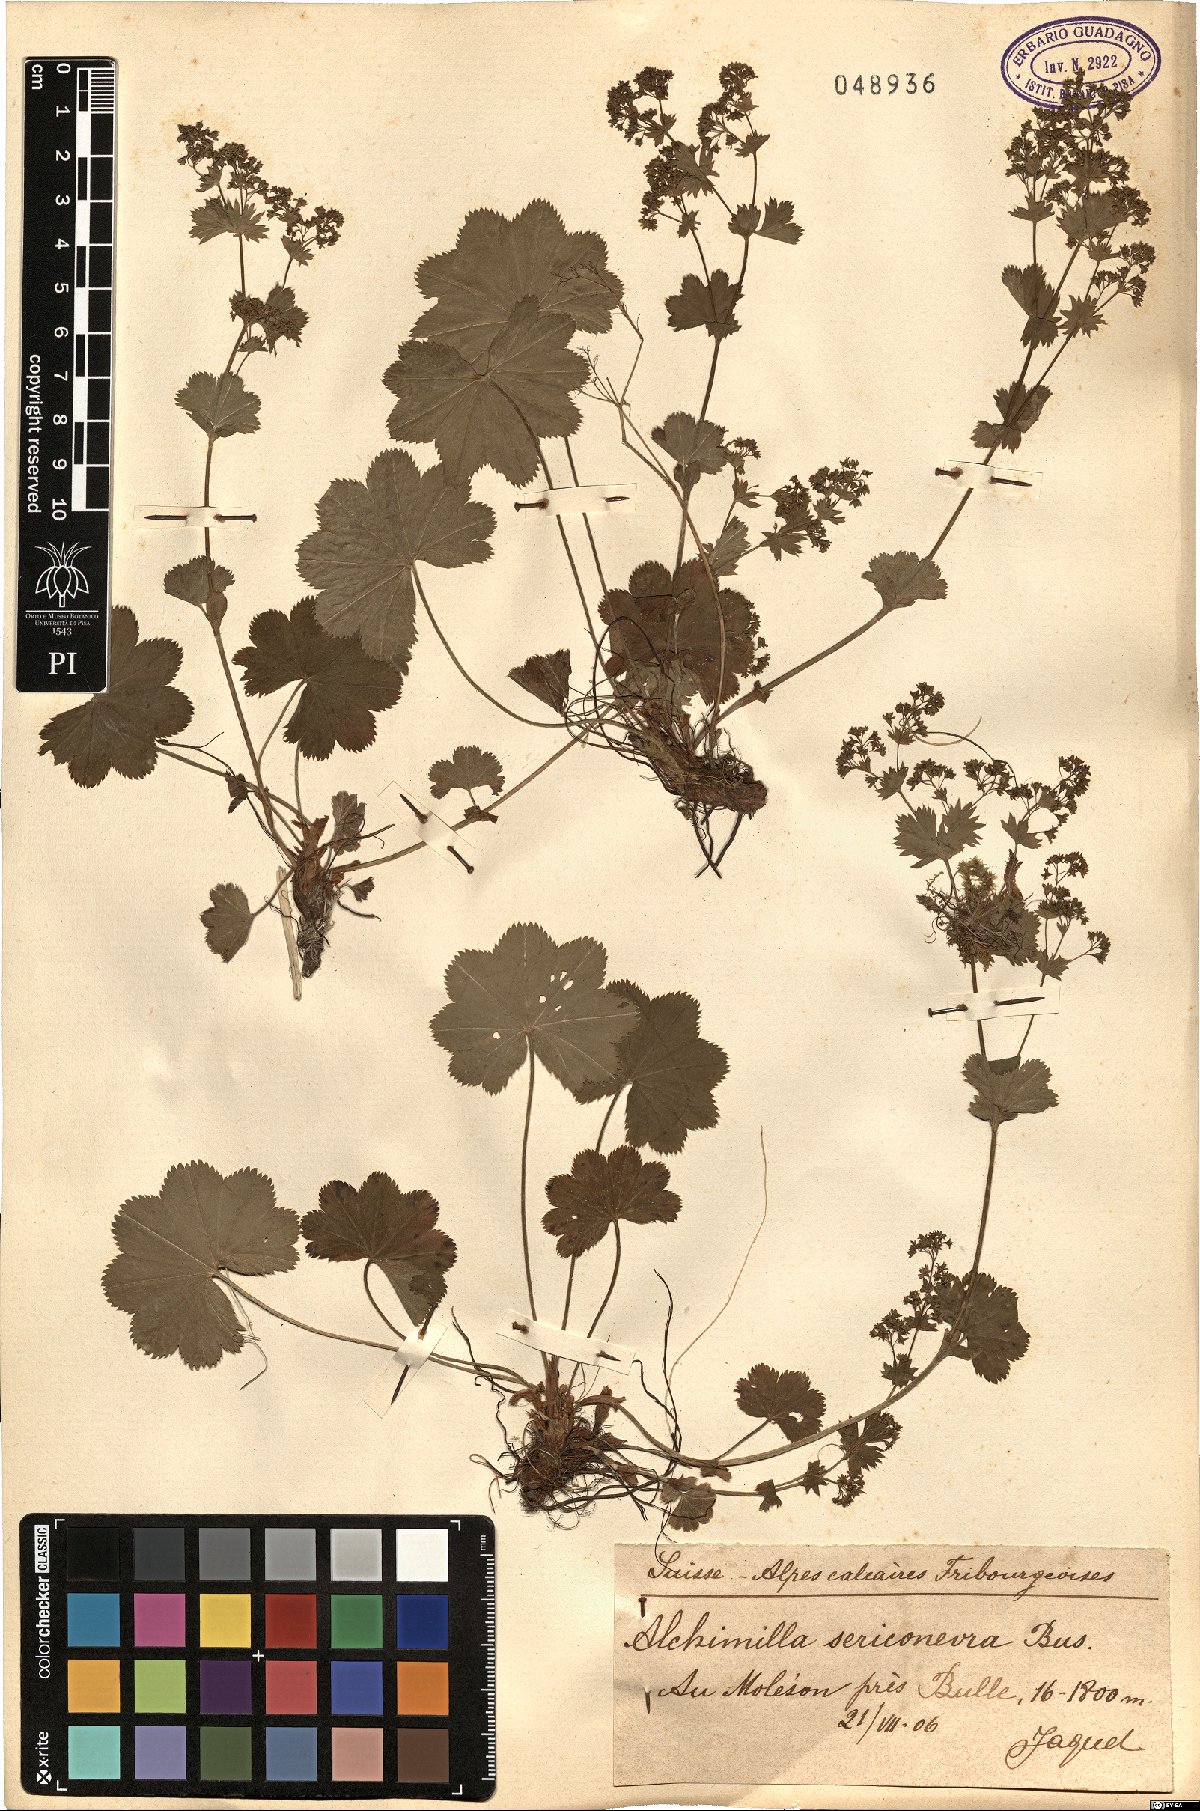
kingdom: Plantae
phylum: Tracheophyta
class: Magnoliopsida
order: Rosales
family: Rosaceae
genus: Alchemilla
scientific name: Alchemilla sericoneura
